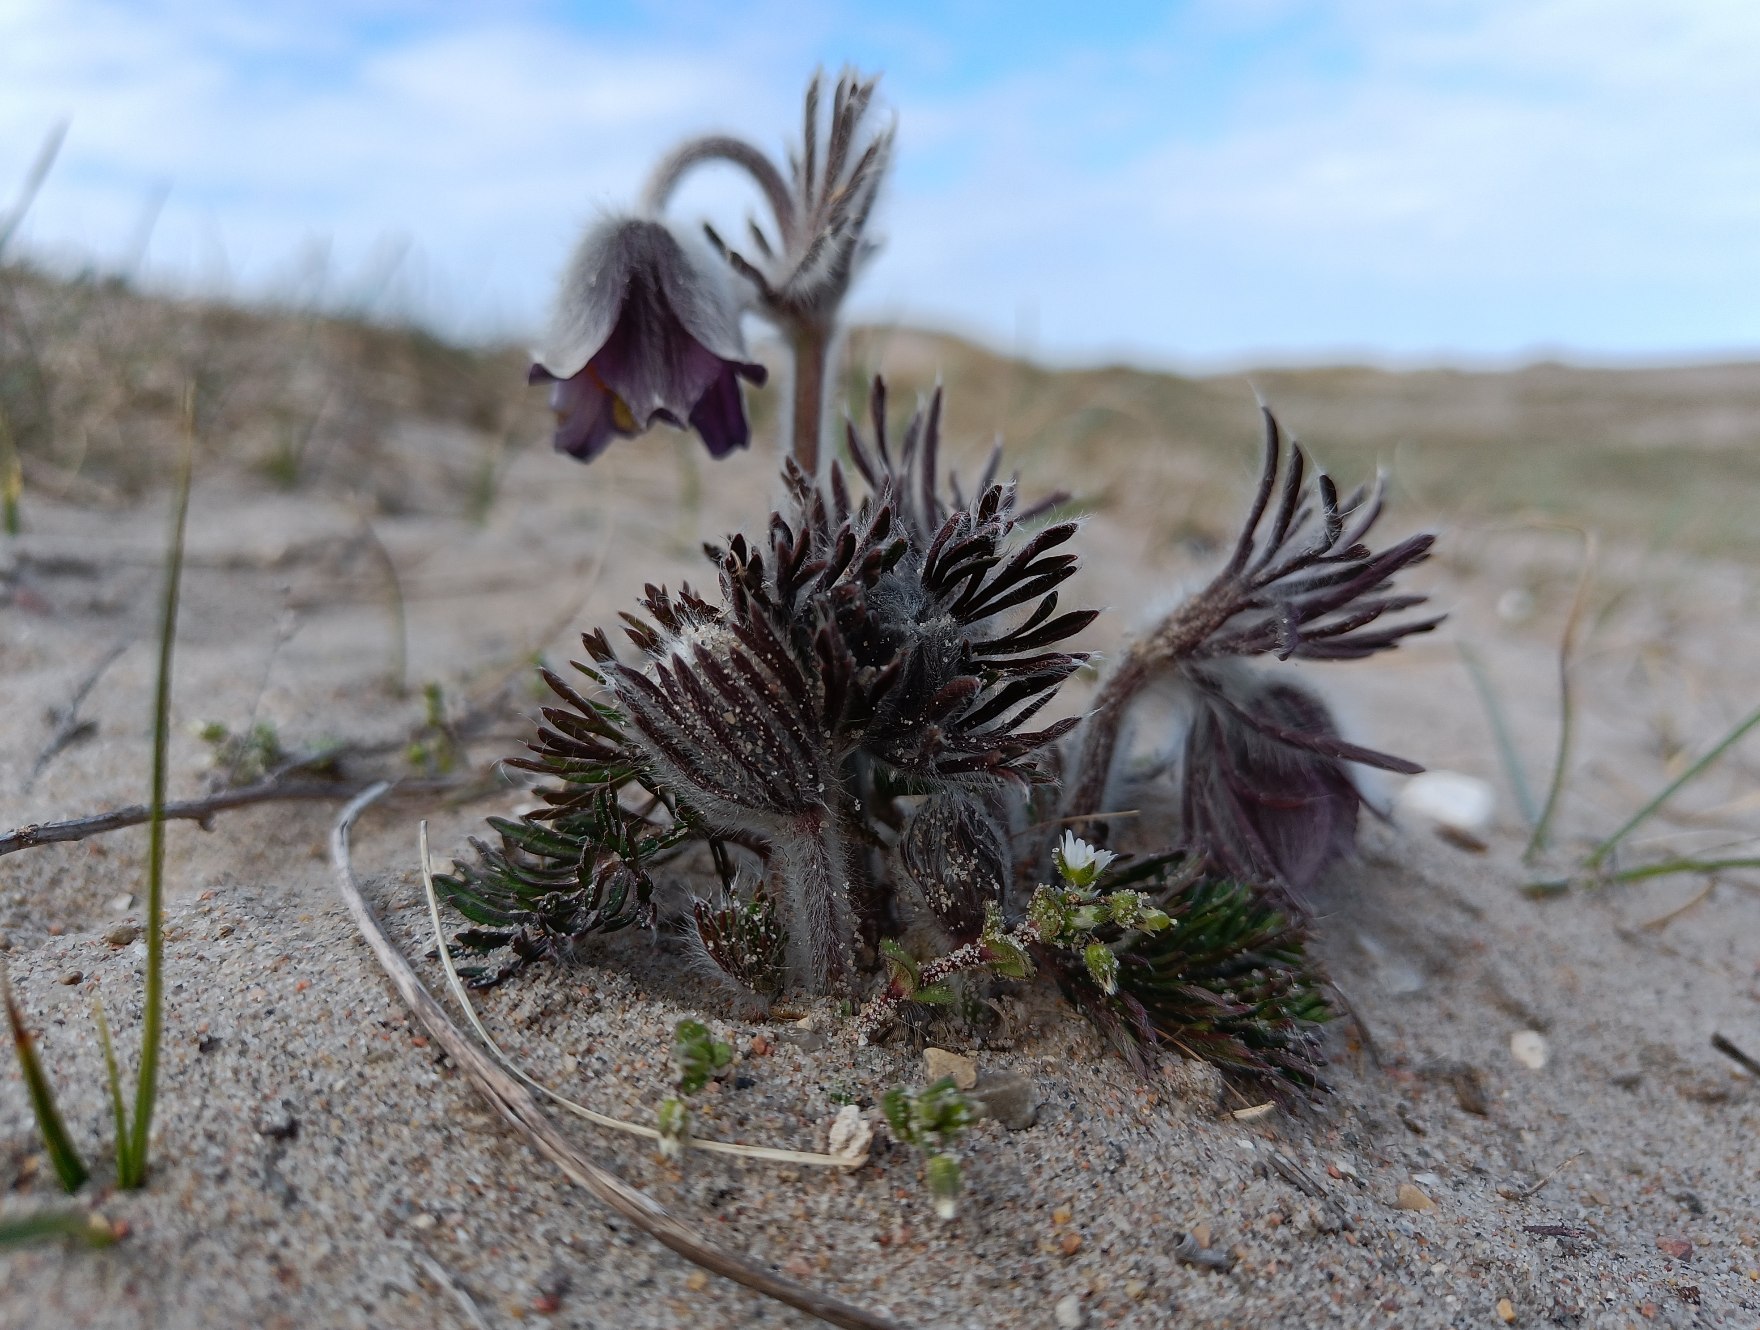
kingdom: Plantae
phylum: Tracheophyta
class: Magnoliopsida
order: Ranunculales
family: Ranunculaceae
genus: Pulsatilla
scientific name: Pulsatilla pratensis
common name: Nikkende kobjælde
